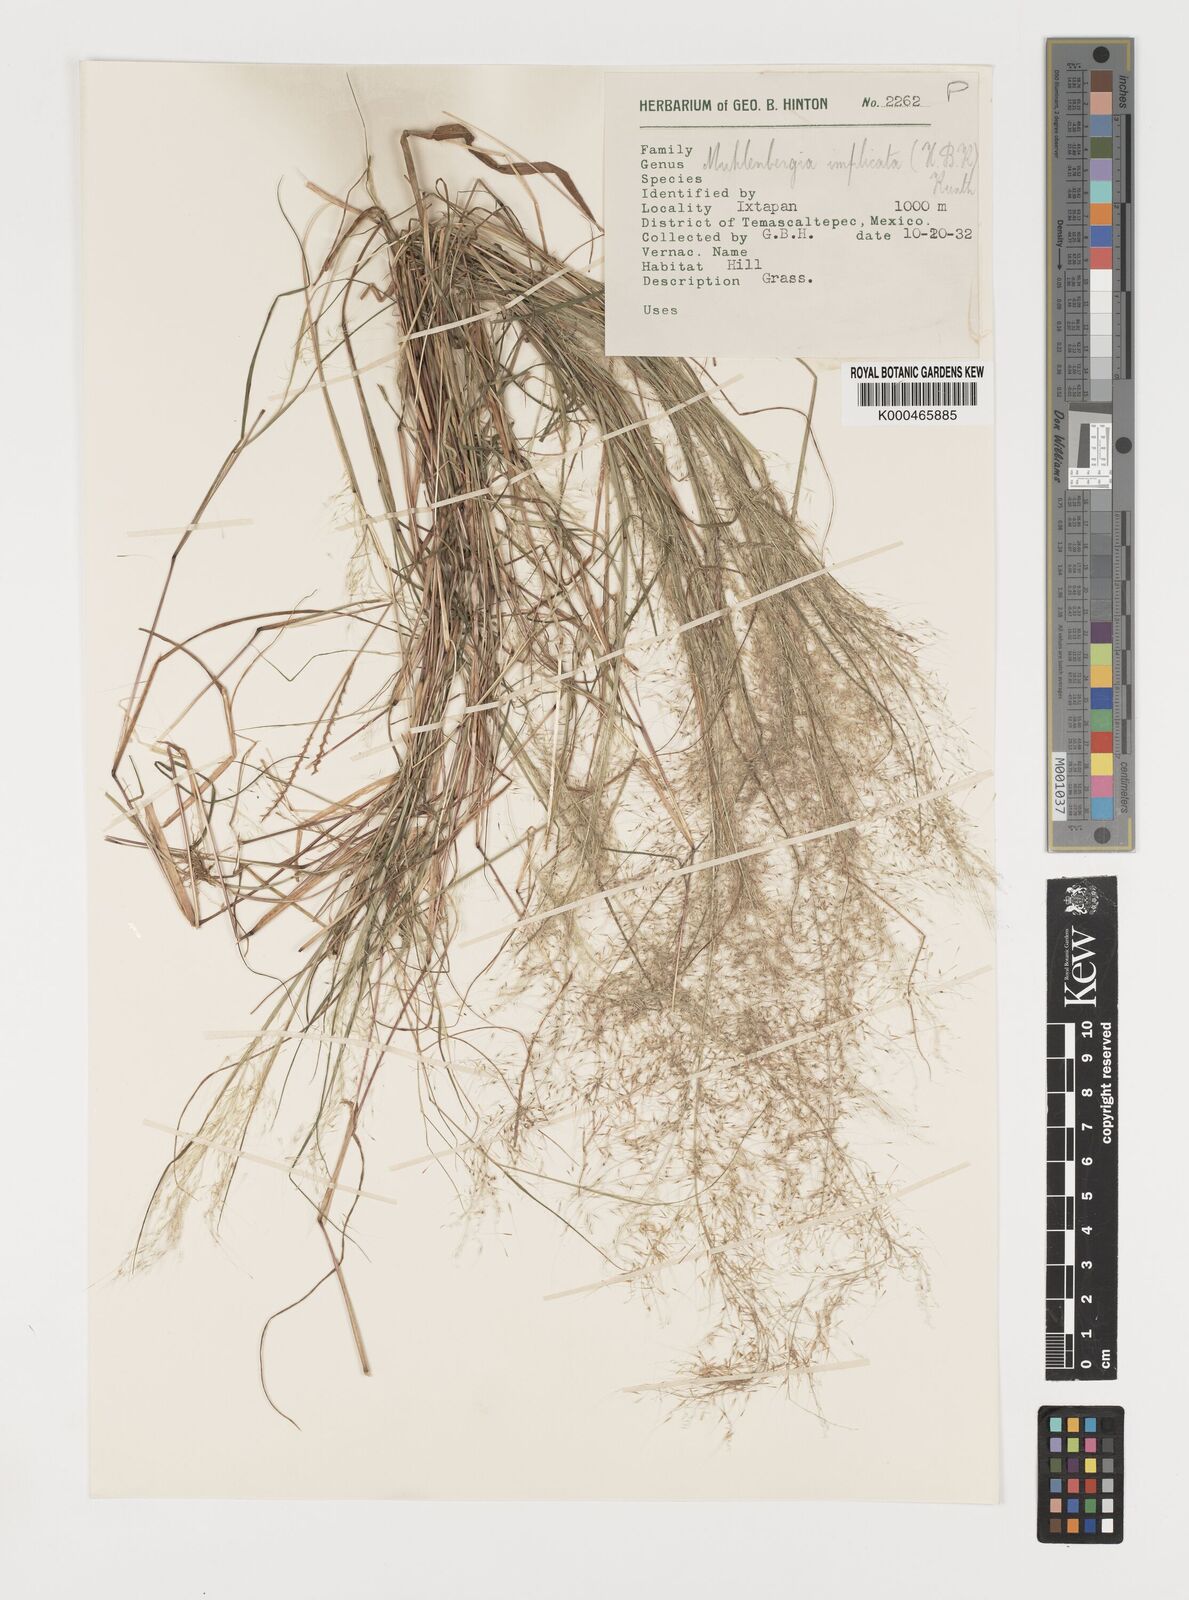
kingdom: Plantae
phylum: Tracheophyta
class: Liliopsida
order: Poales
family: Poaceae
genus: Muhlenbergia
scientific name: Muhlenbergia implicata
